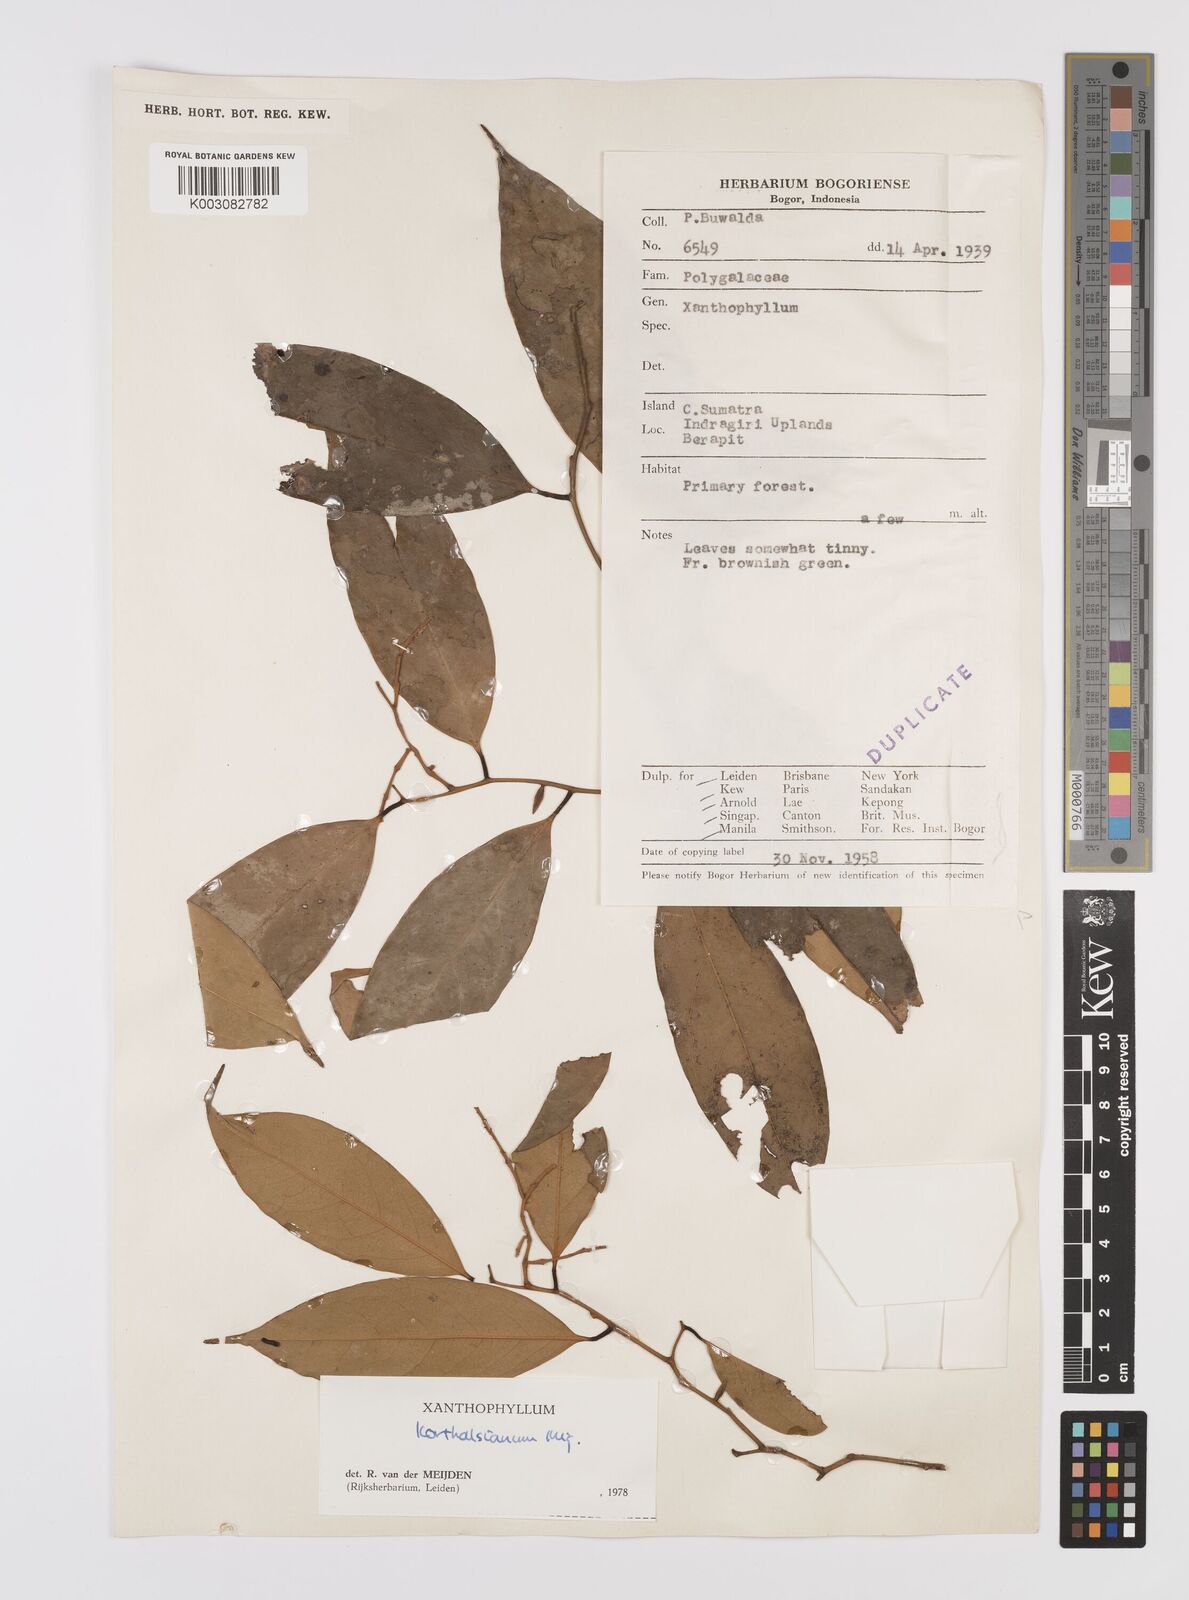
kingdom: Plantae
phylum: Tracheophyta
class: Magnoliopsida
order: Fabales
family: Polygalaceae
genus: Xanthophyllum
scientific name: Xanthophyllum korthalsianum
